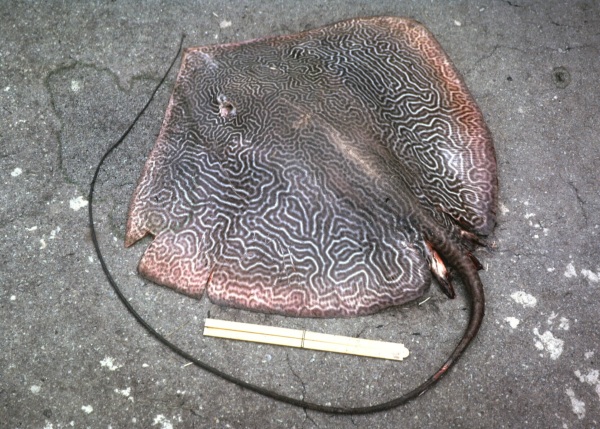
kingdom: Animalia
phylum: Chordata
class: Elasmobranchii
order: Myliobatiformes
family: Dasyatidae
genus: Himantura
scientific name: Himantura uarnak
